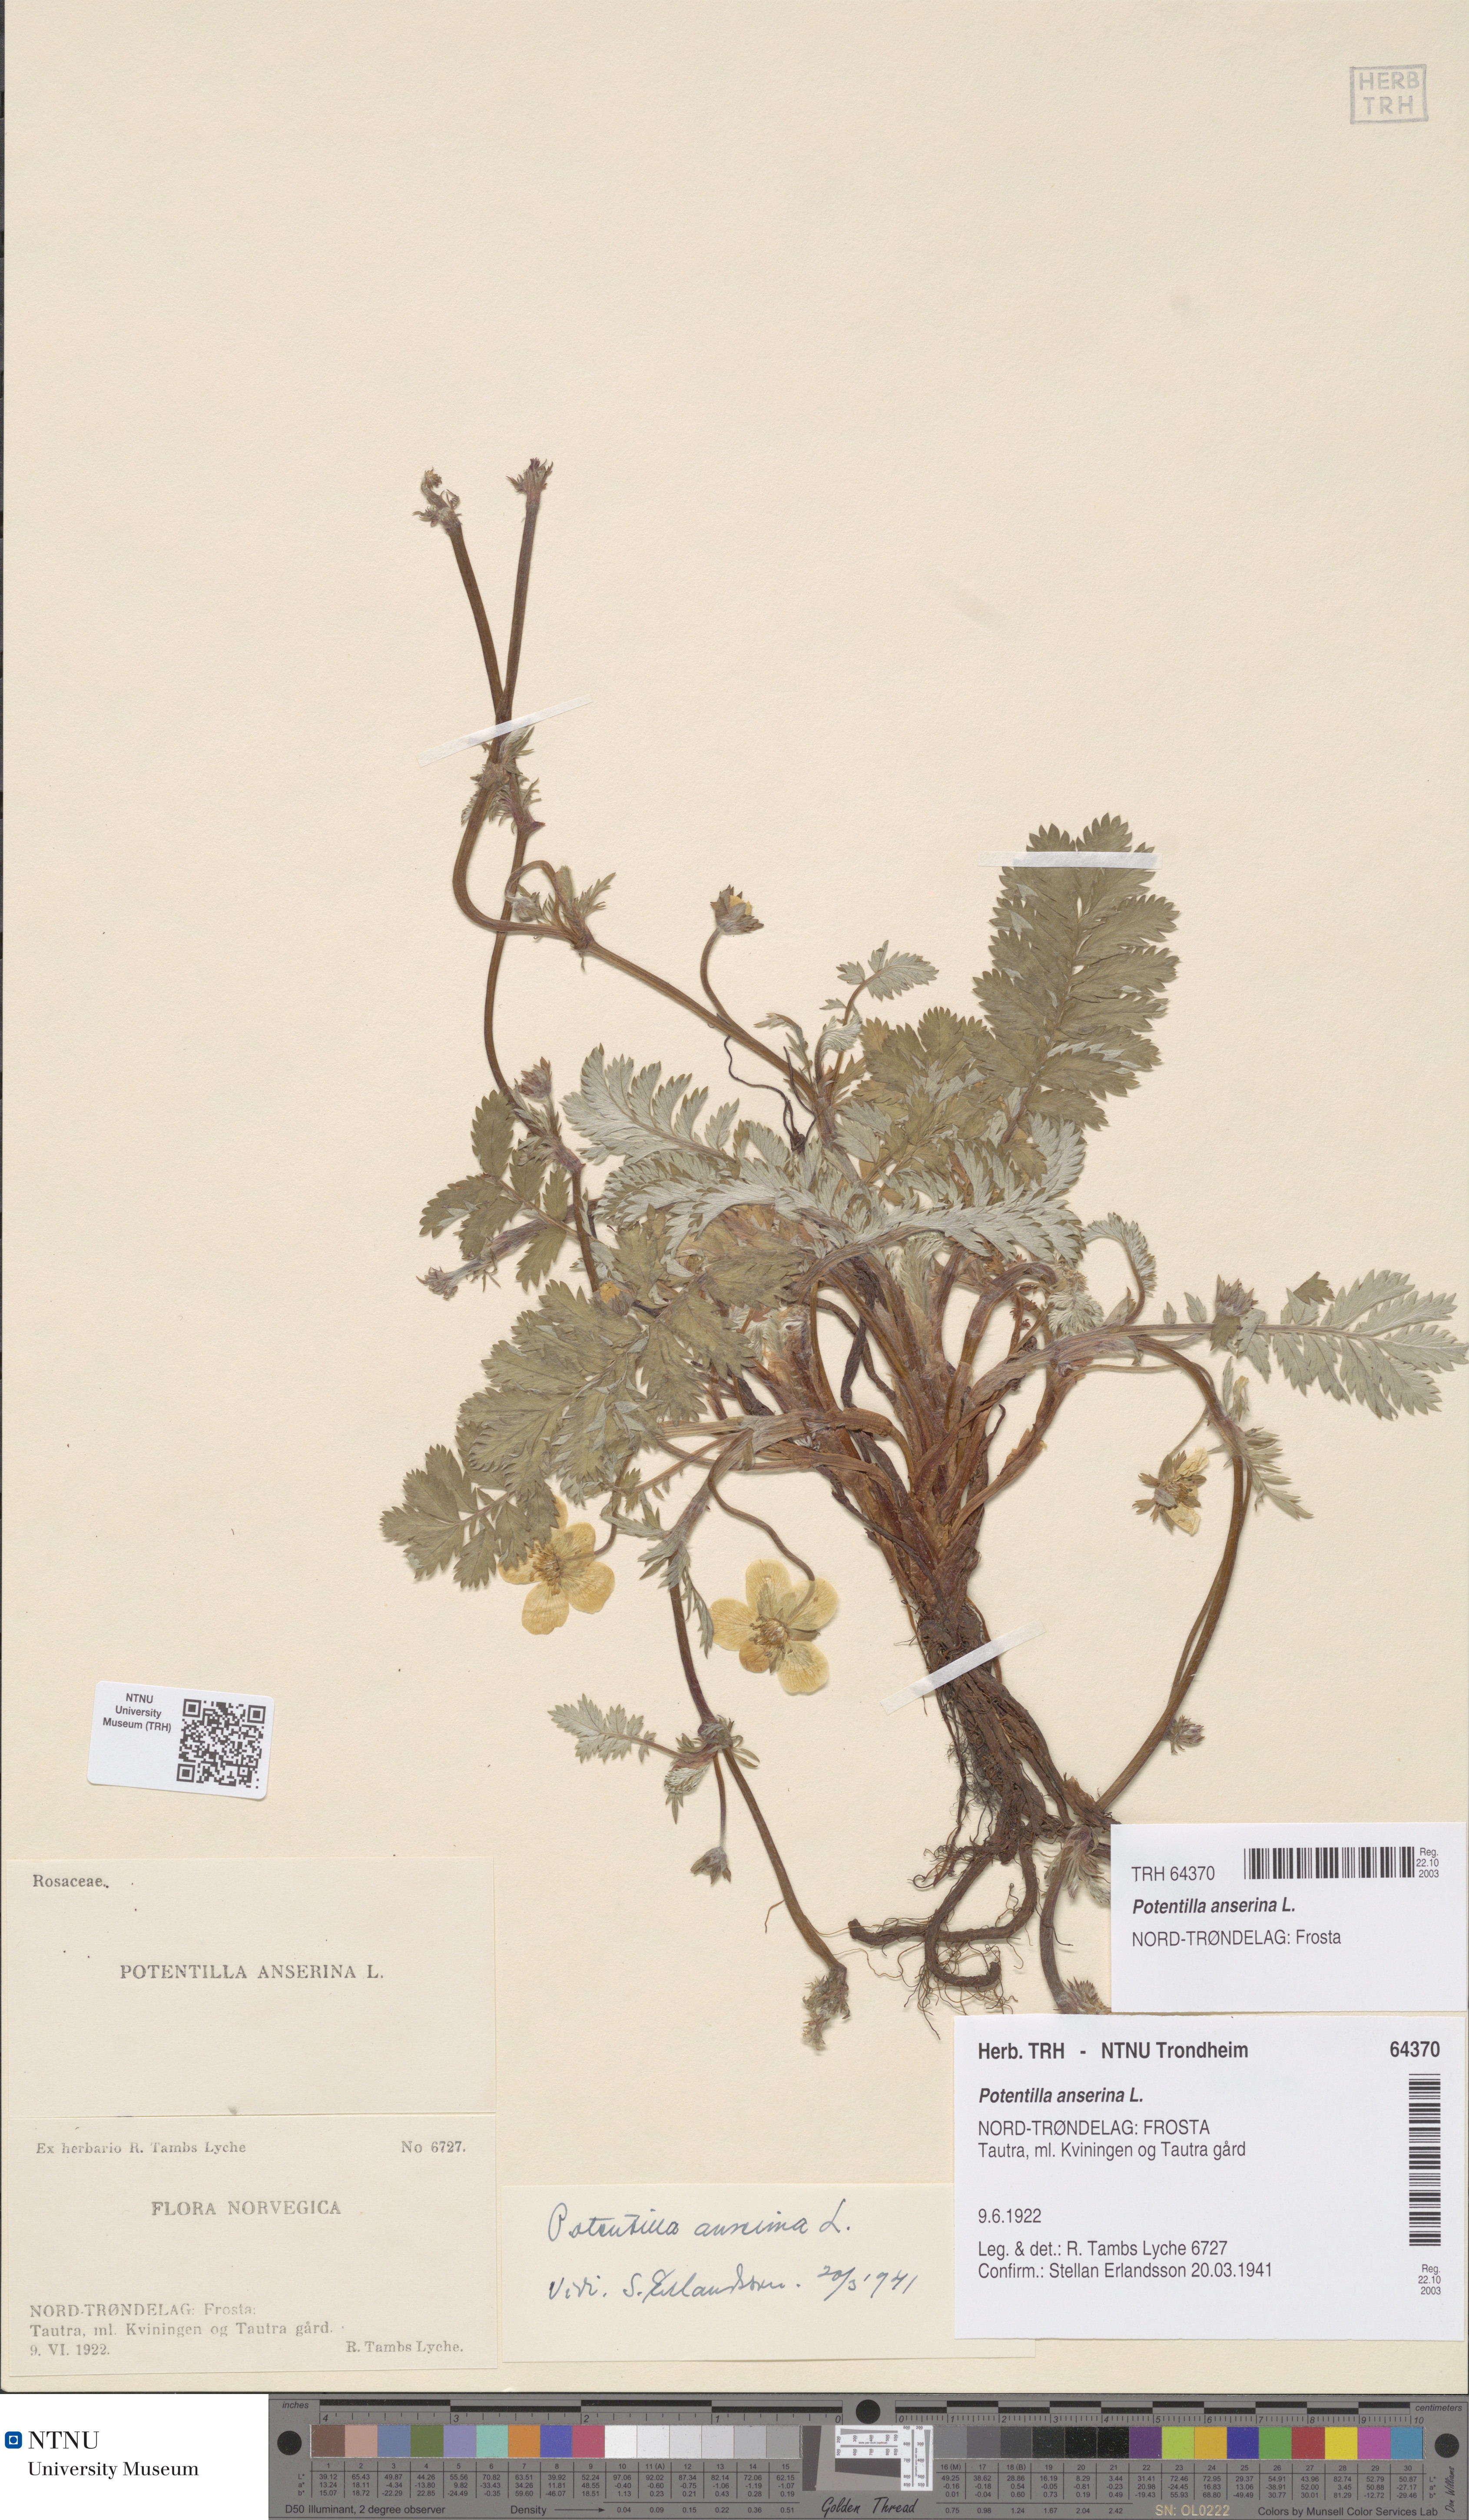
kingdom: Plantae
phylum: Tracheophyta
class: Magnoliopsida
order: Rosales
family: Rosaceae
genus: Argentina
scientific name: Argentina anserina
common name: Common silverweed
